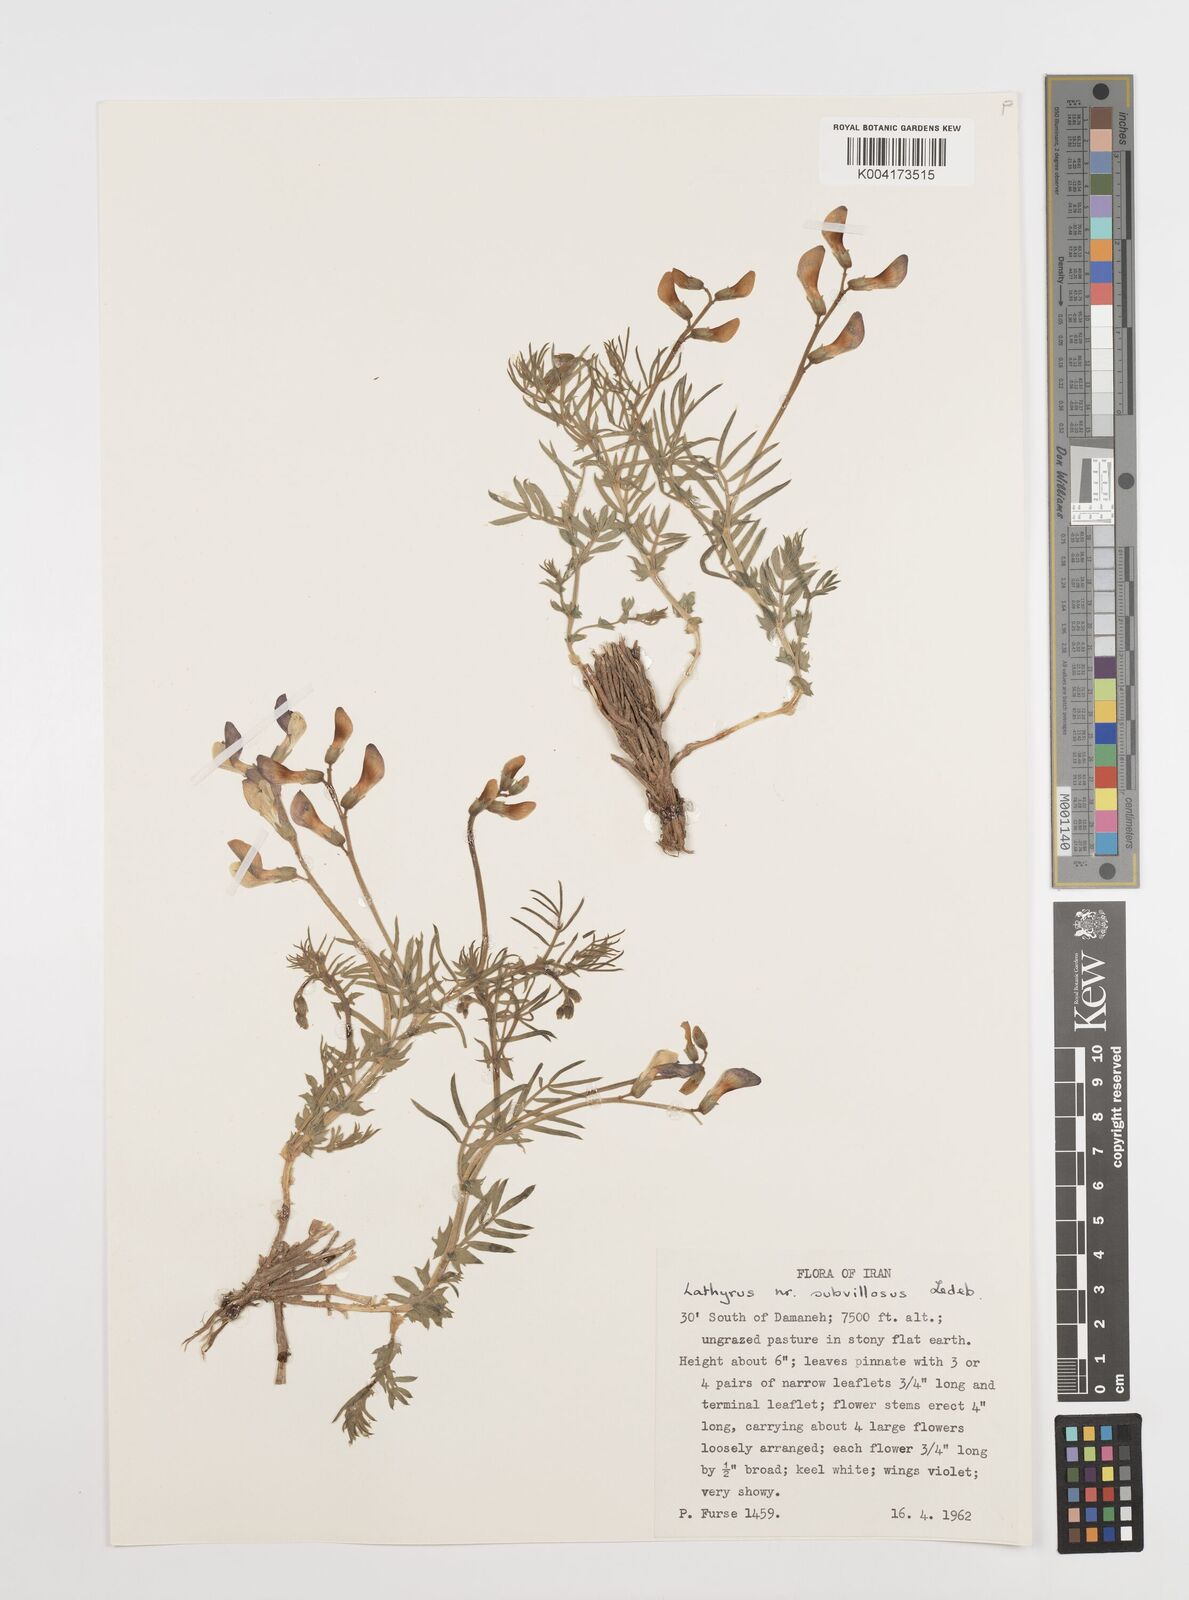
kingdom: Plantae
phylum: Tracheophyta
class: Magnoliopsida
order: Fabales
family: Fabaceae
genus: Vicia
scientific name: Vicia subvillosa
